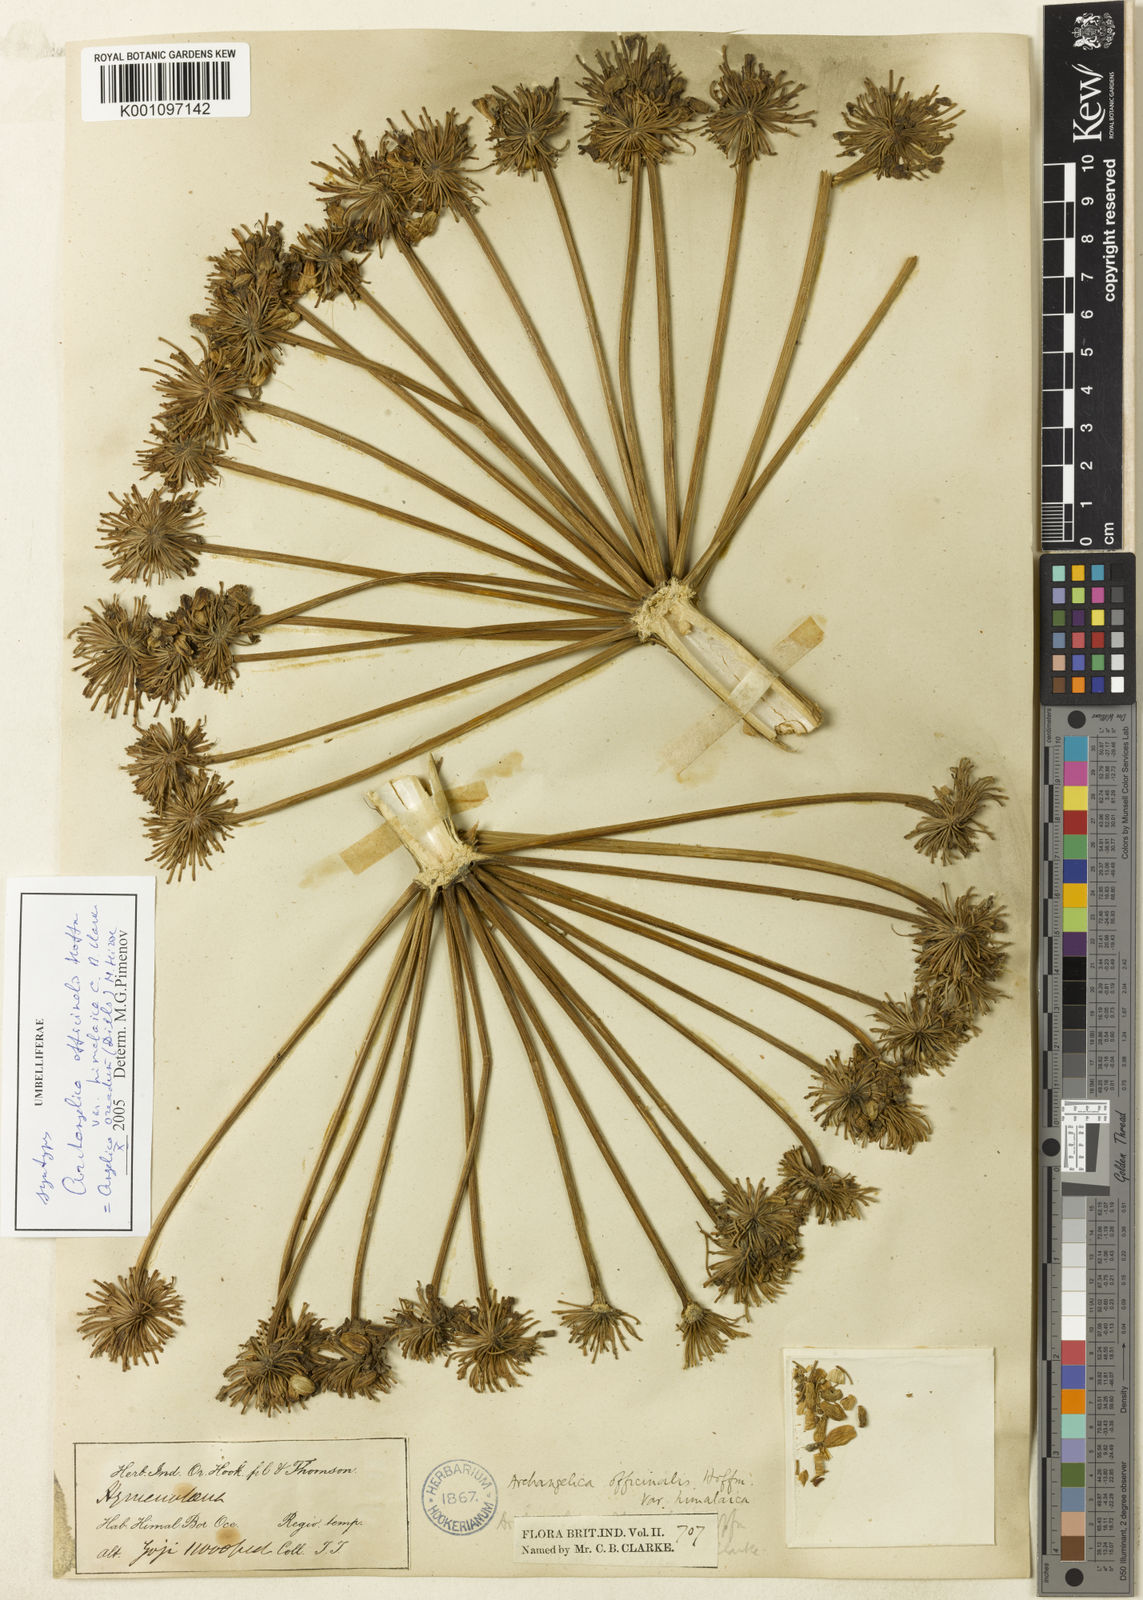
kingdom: Plantae
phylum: Tracheophyta
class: Magnoliopsida
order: Apiales
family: Apiaceae
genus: Angelica
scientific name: Angelica oreada
